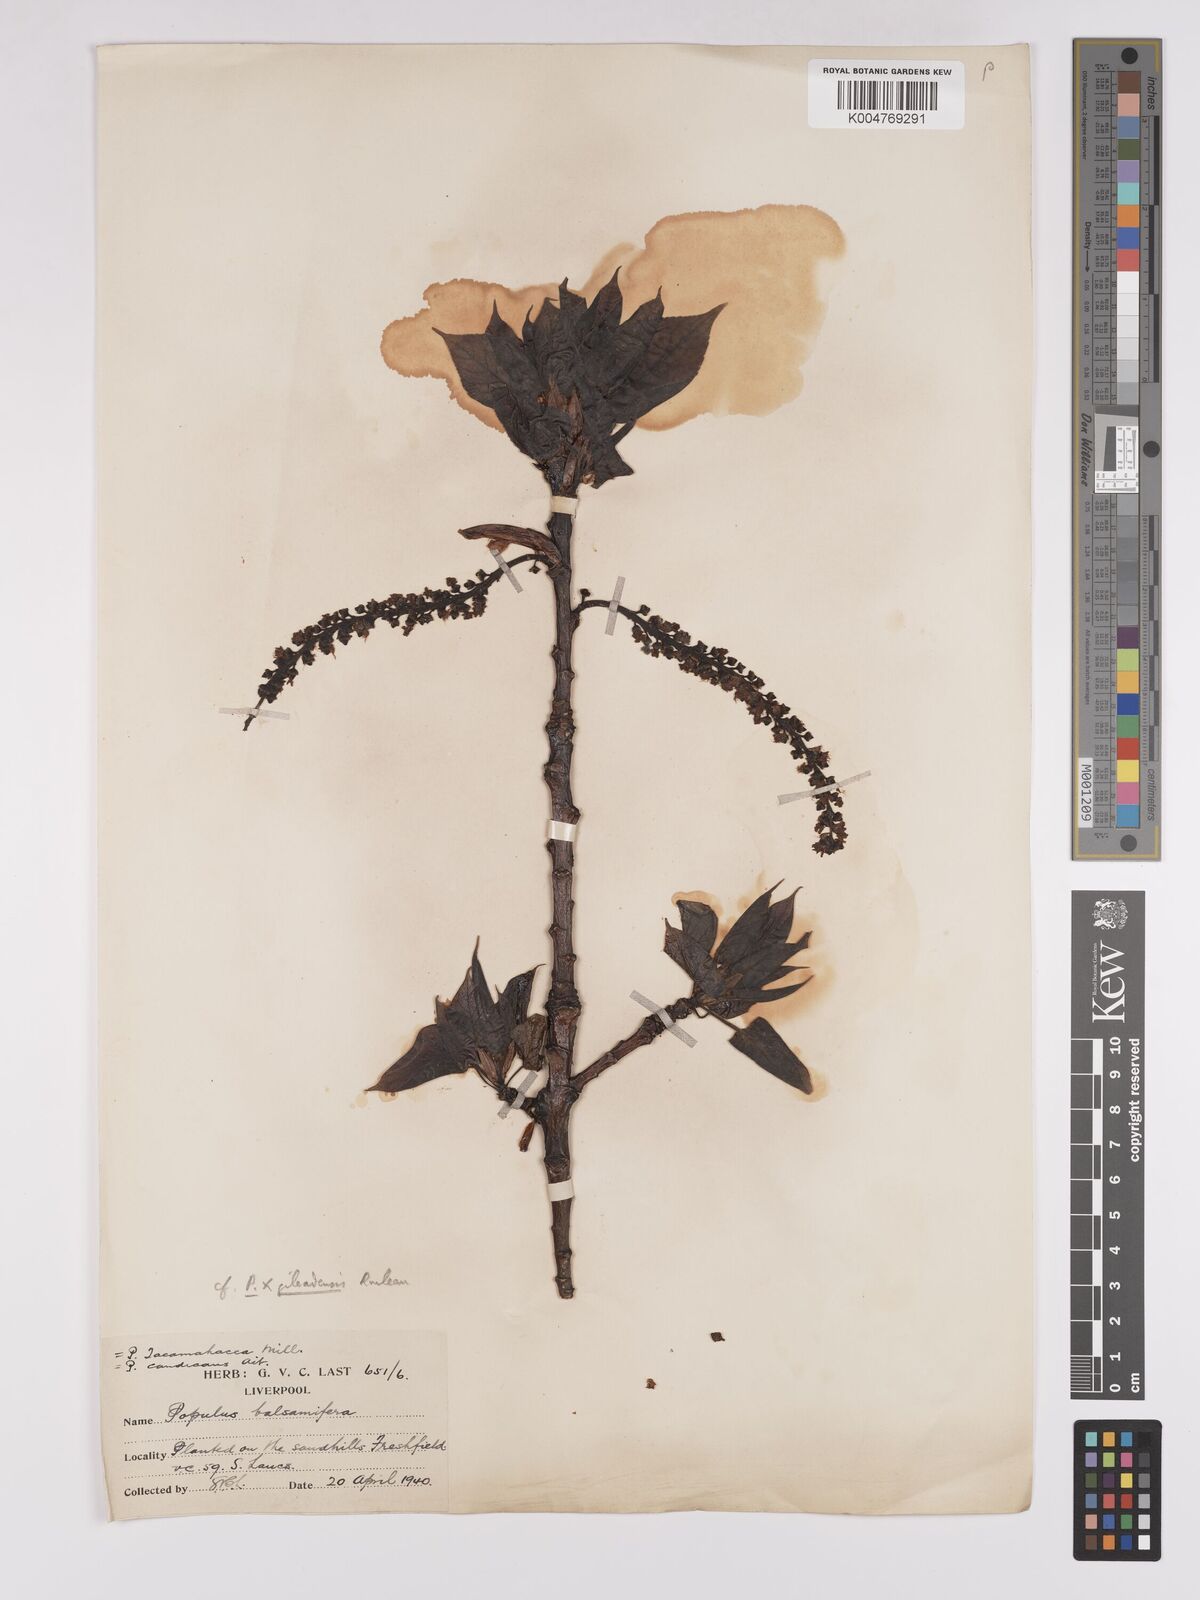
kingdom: Plantae
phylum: Tracheophyta
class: Magnoliopsida
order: Malpighiales
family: Salicaceae
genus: Populus
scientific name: Populus balsamifera
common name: Balsam poplar
